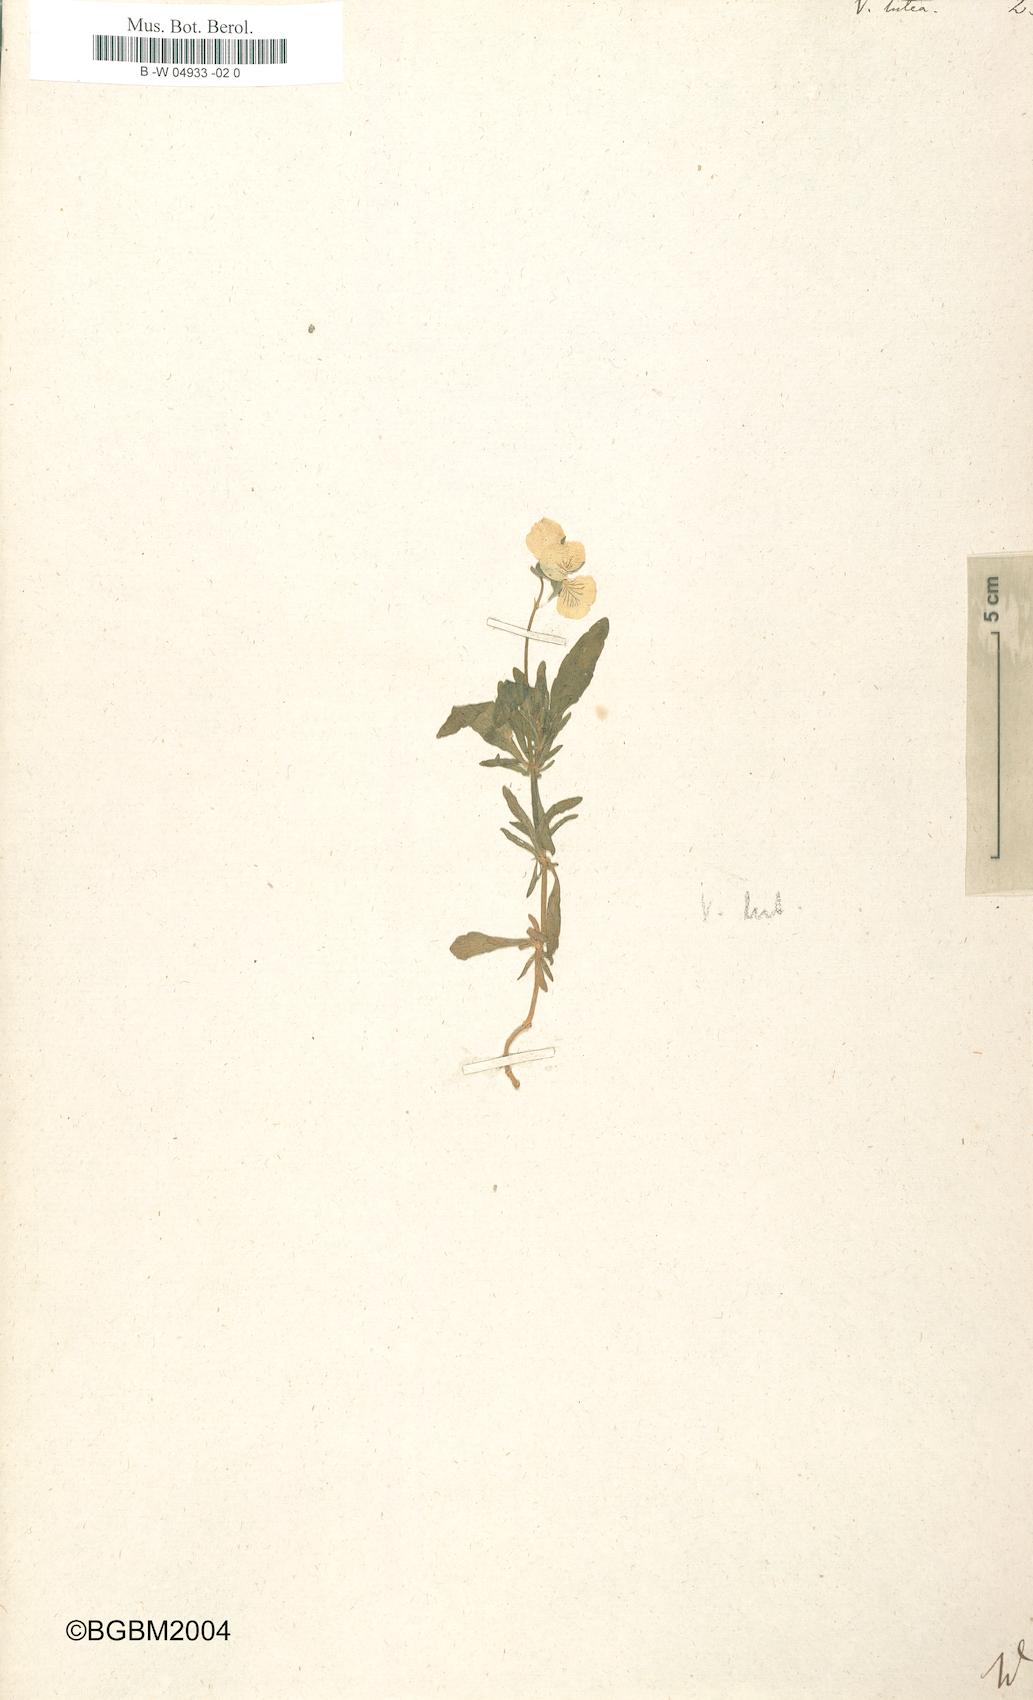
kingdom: Plantae
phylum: Tracheophyta
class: Magnoliopsida
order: Malpighiales
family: Violaceae
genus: Viola
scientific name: Viola lutea
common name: Mountain pansy
